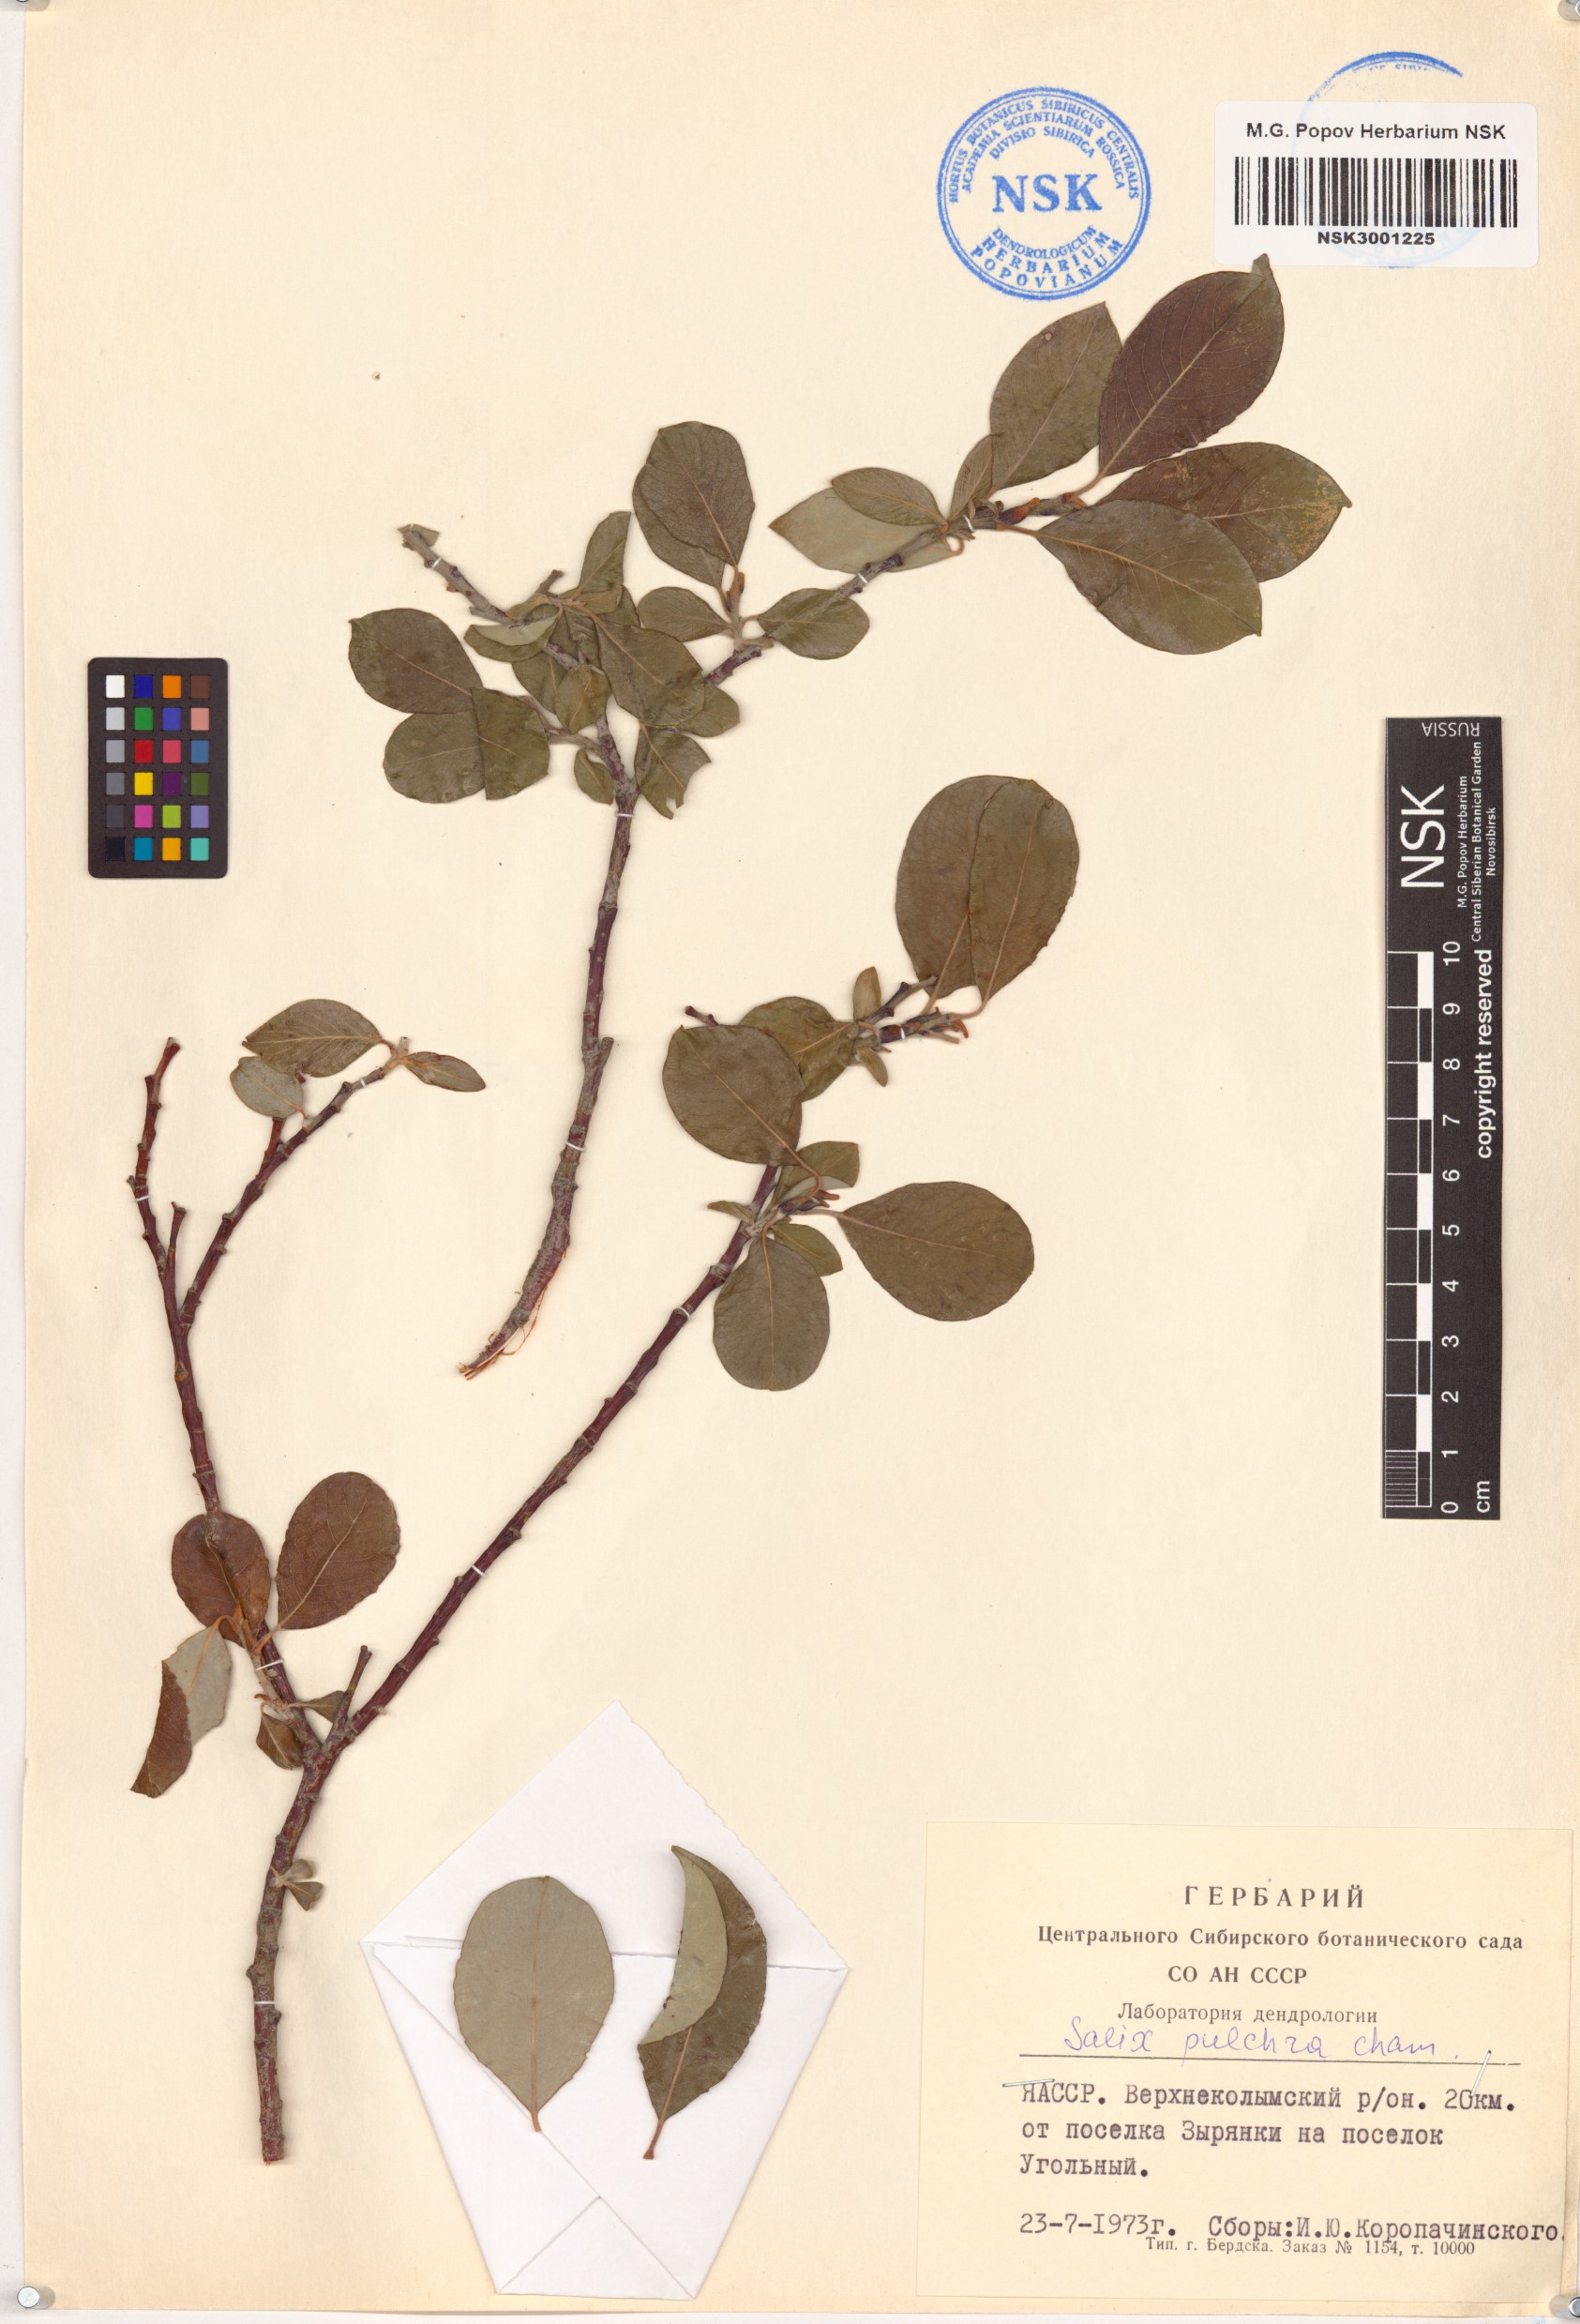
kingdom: Plantae
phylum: Tracheophyta
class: Magnoliopsida
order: Malpighiales
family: Salicaceae
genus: Salix
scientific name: Salix pulchra
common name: Diamond-leaved willow
